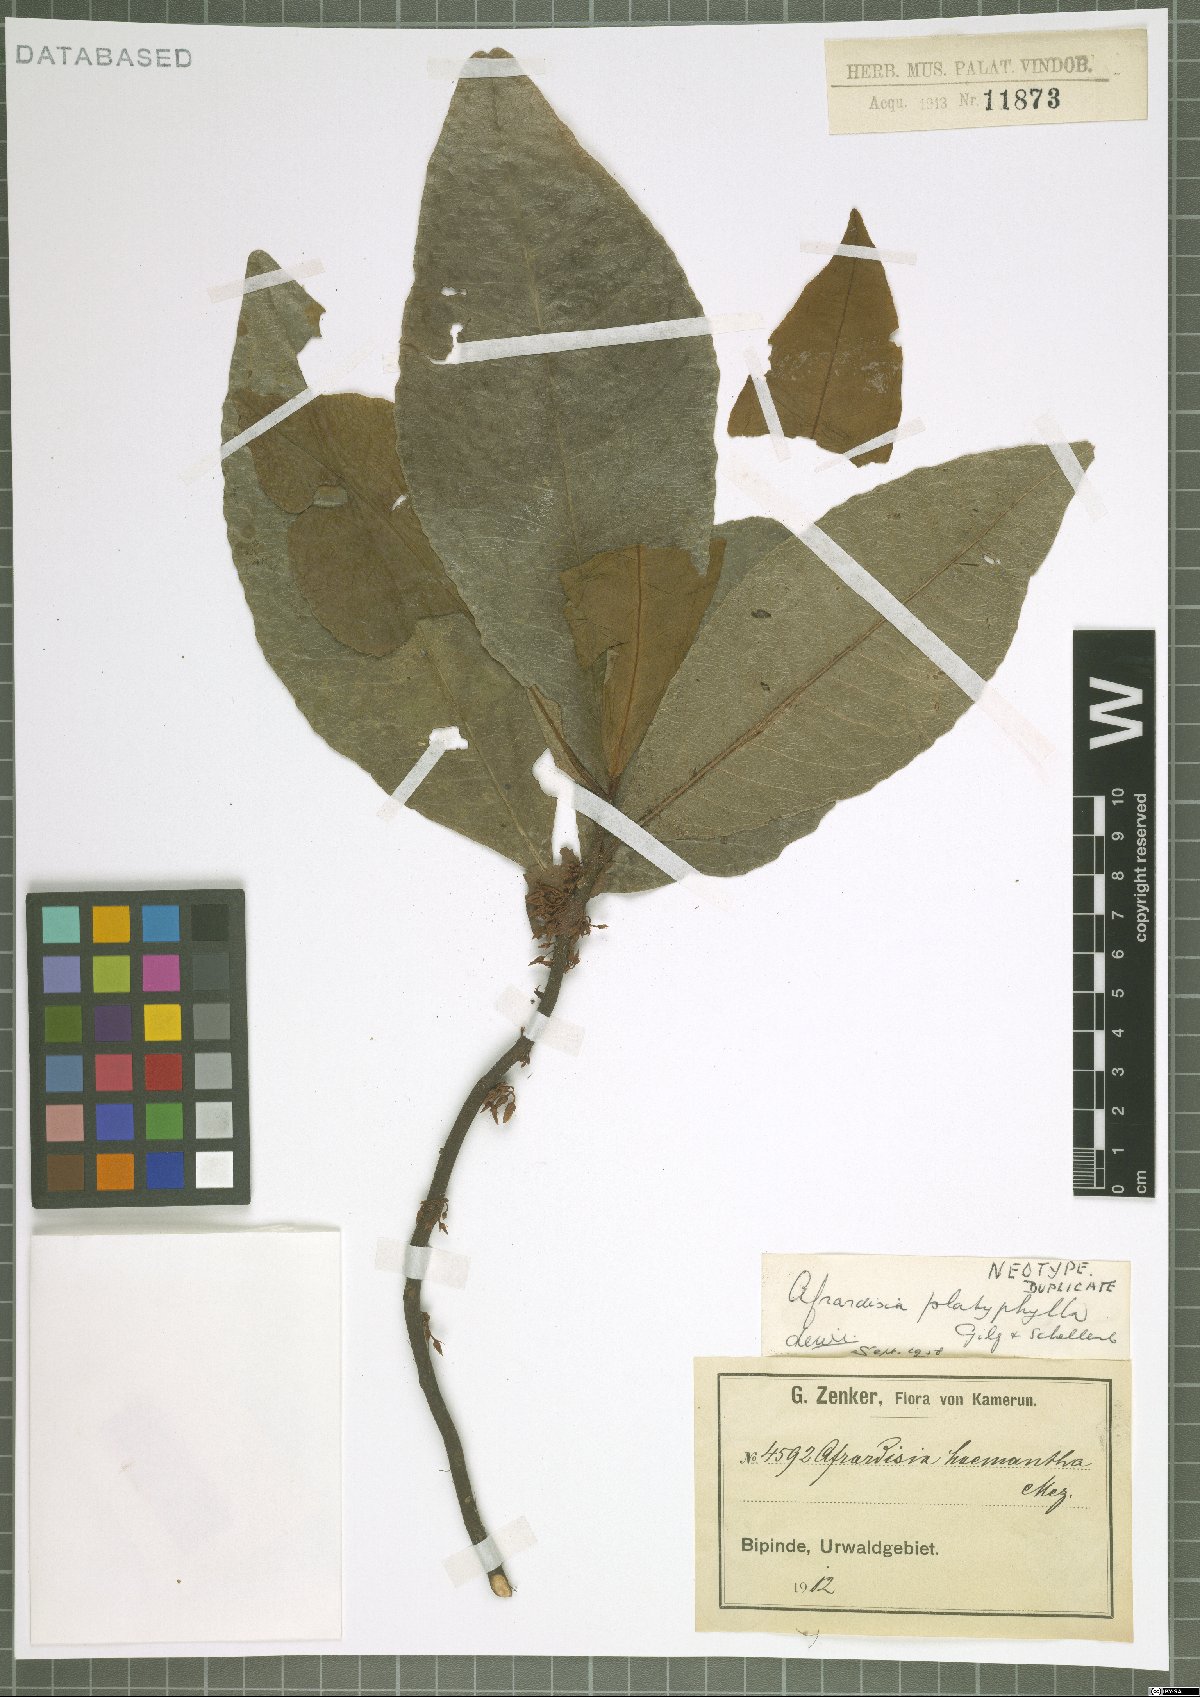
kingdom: Plantae
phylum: Tracheophyta
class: Magnoliopsida
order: Ericales
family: Primulaceae
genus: Ardisia
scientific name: Ardisia dekinderi
